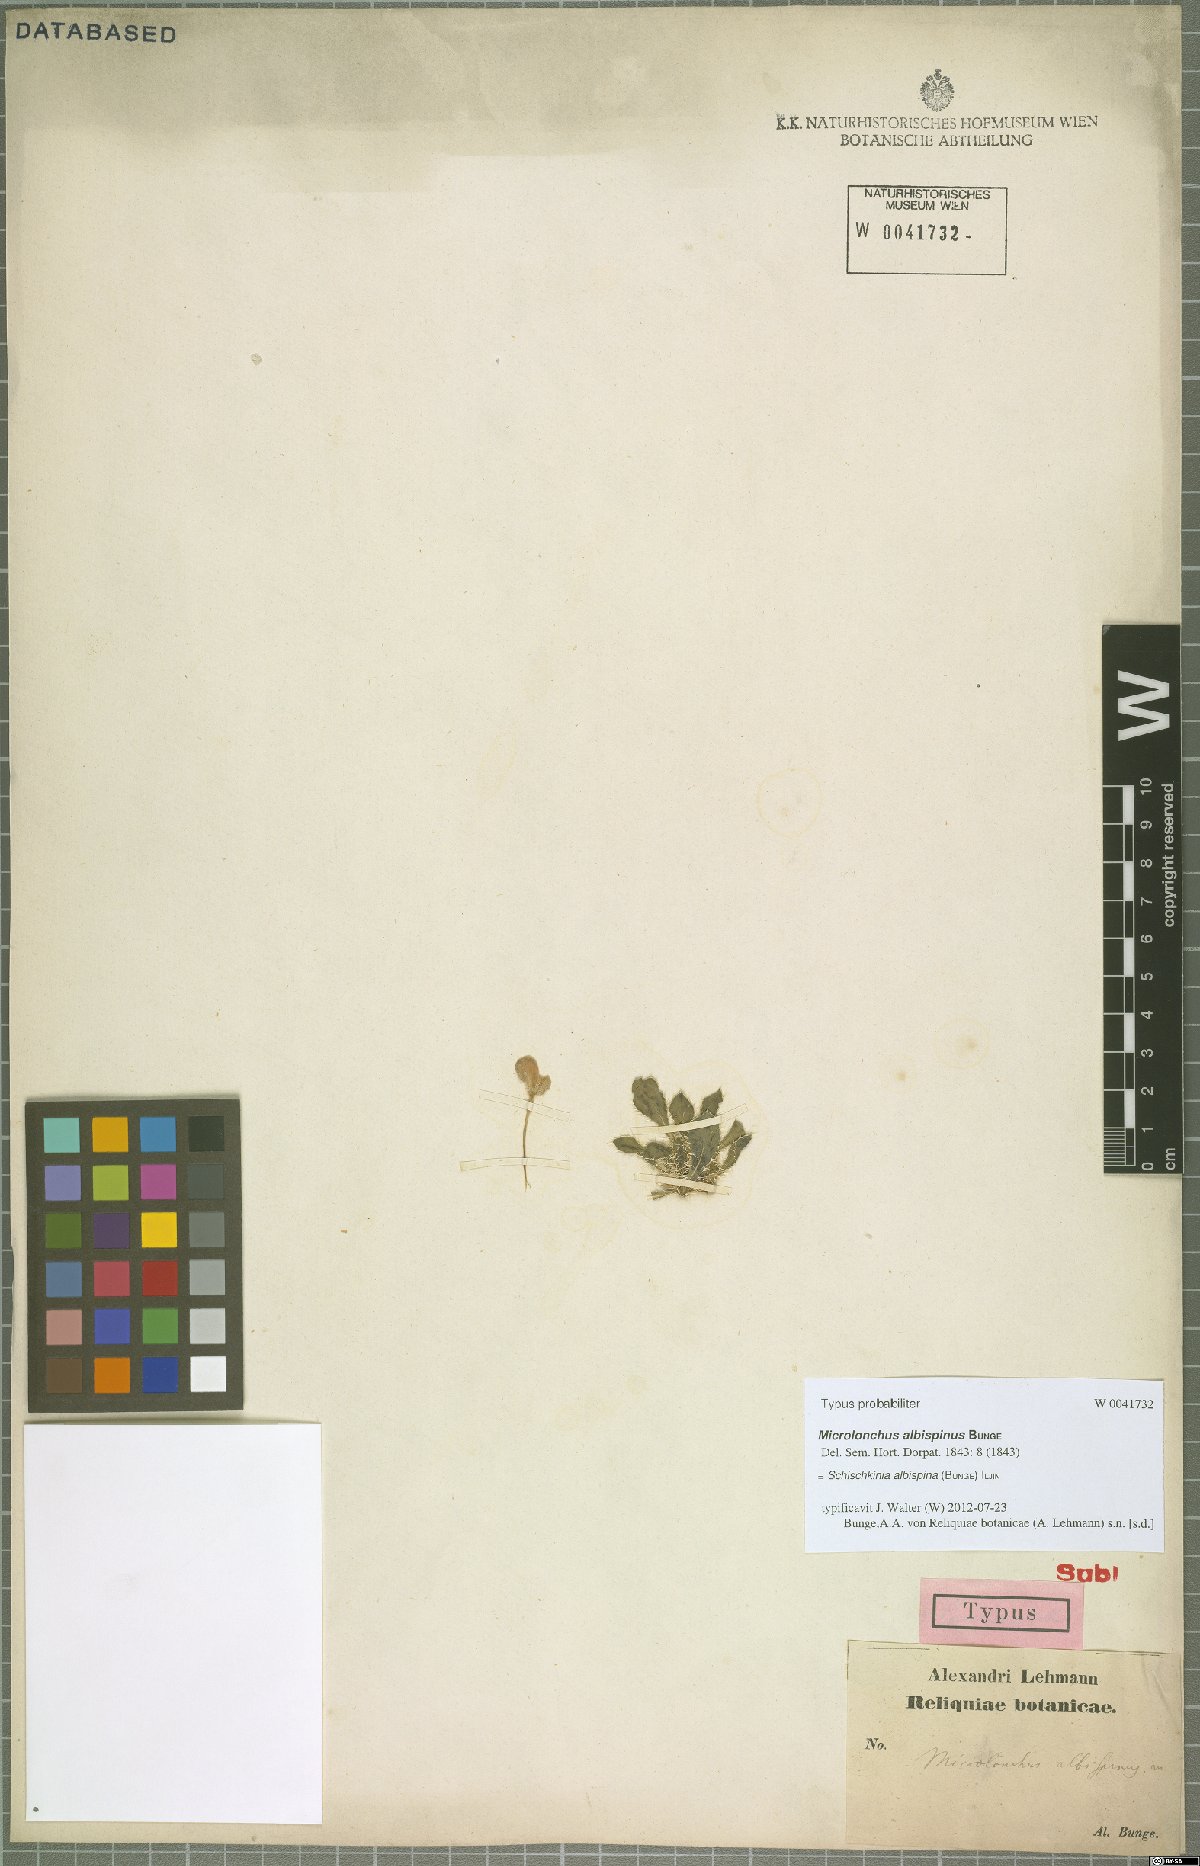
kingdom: Plantae
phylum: Tracheophyta
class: Magnoliopsida
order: Asterales
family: Asteraceae
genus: Schischkinia
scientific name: Schischkinia albispina
